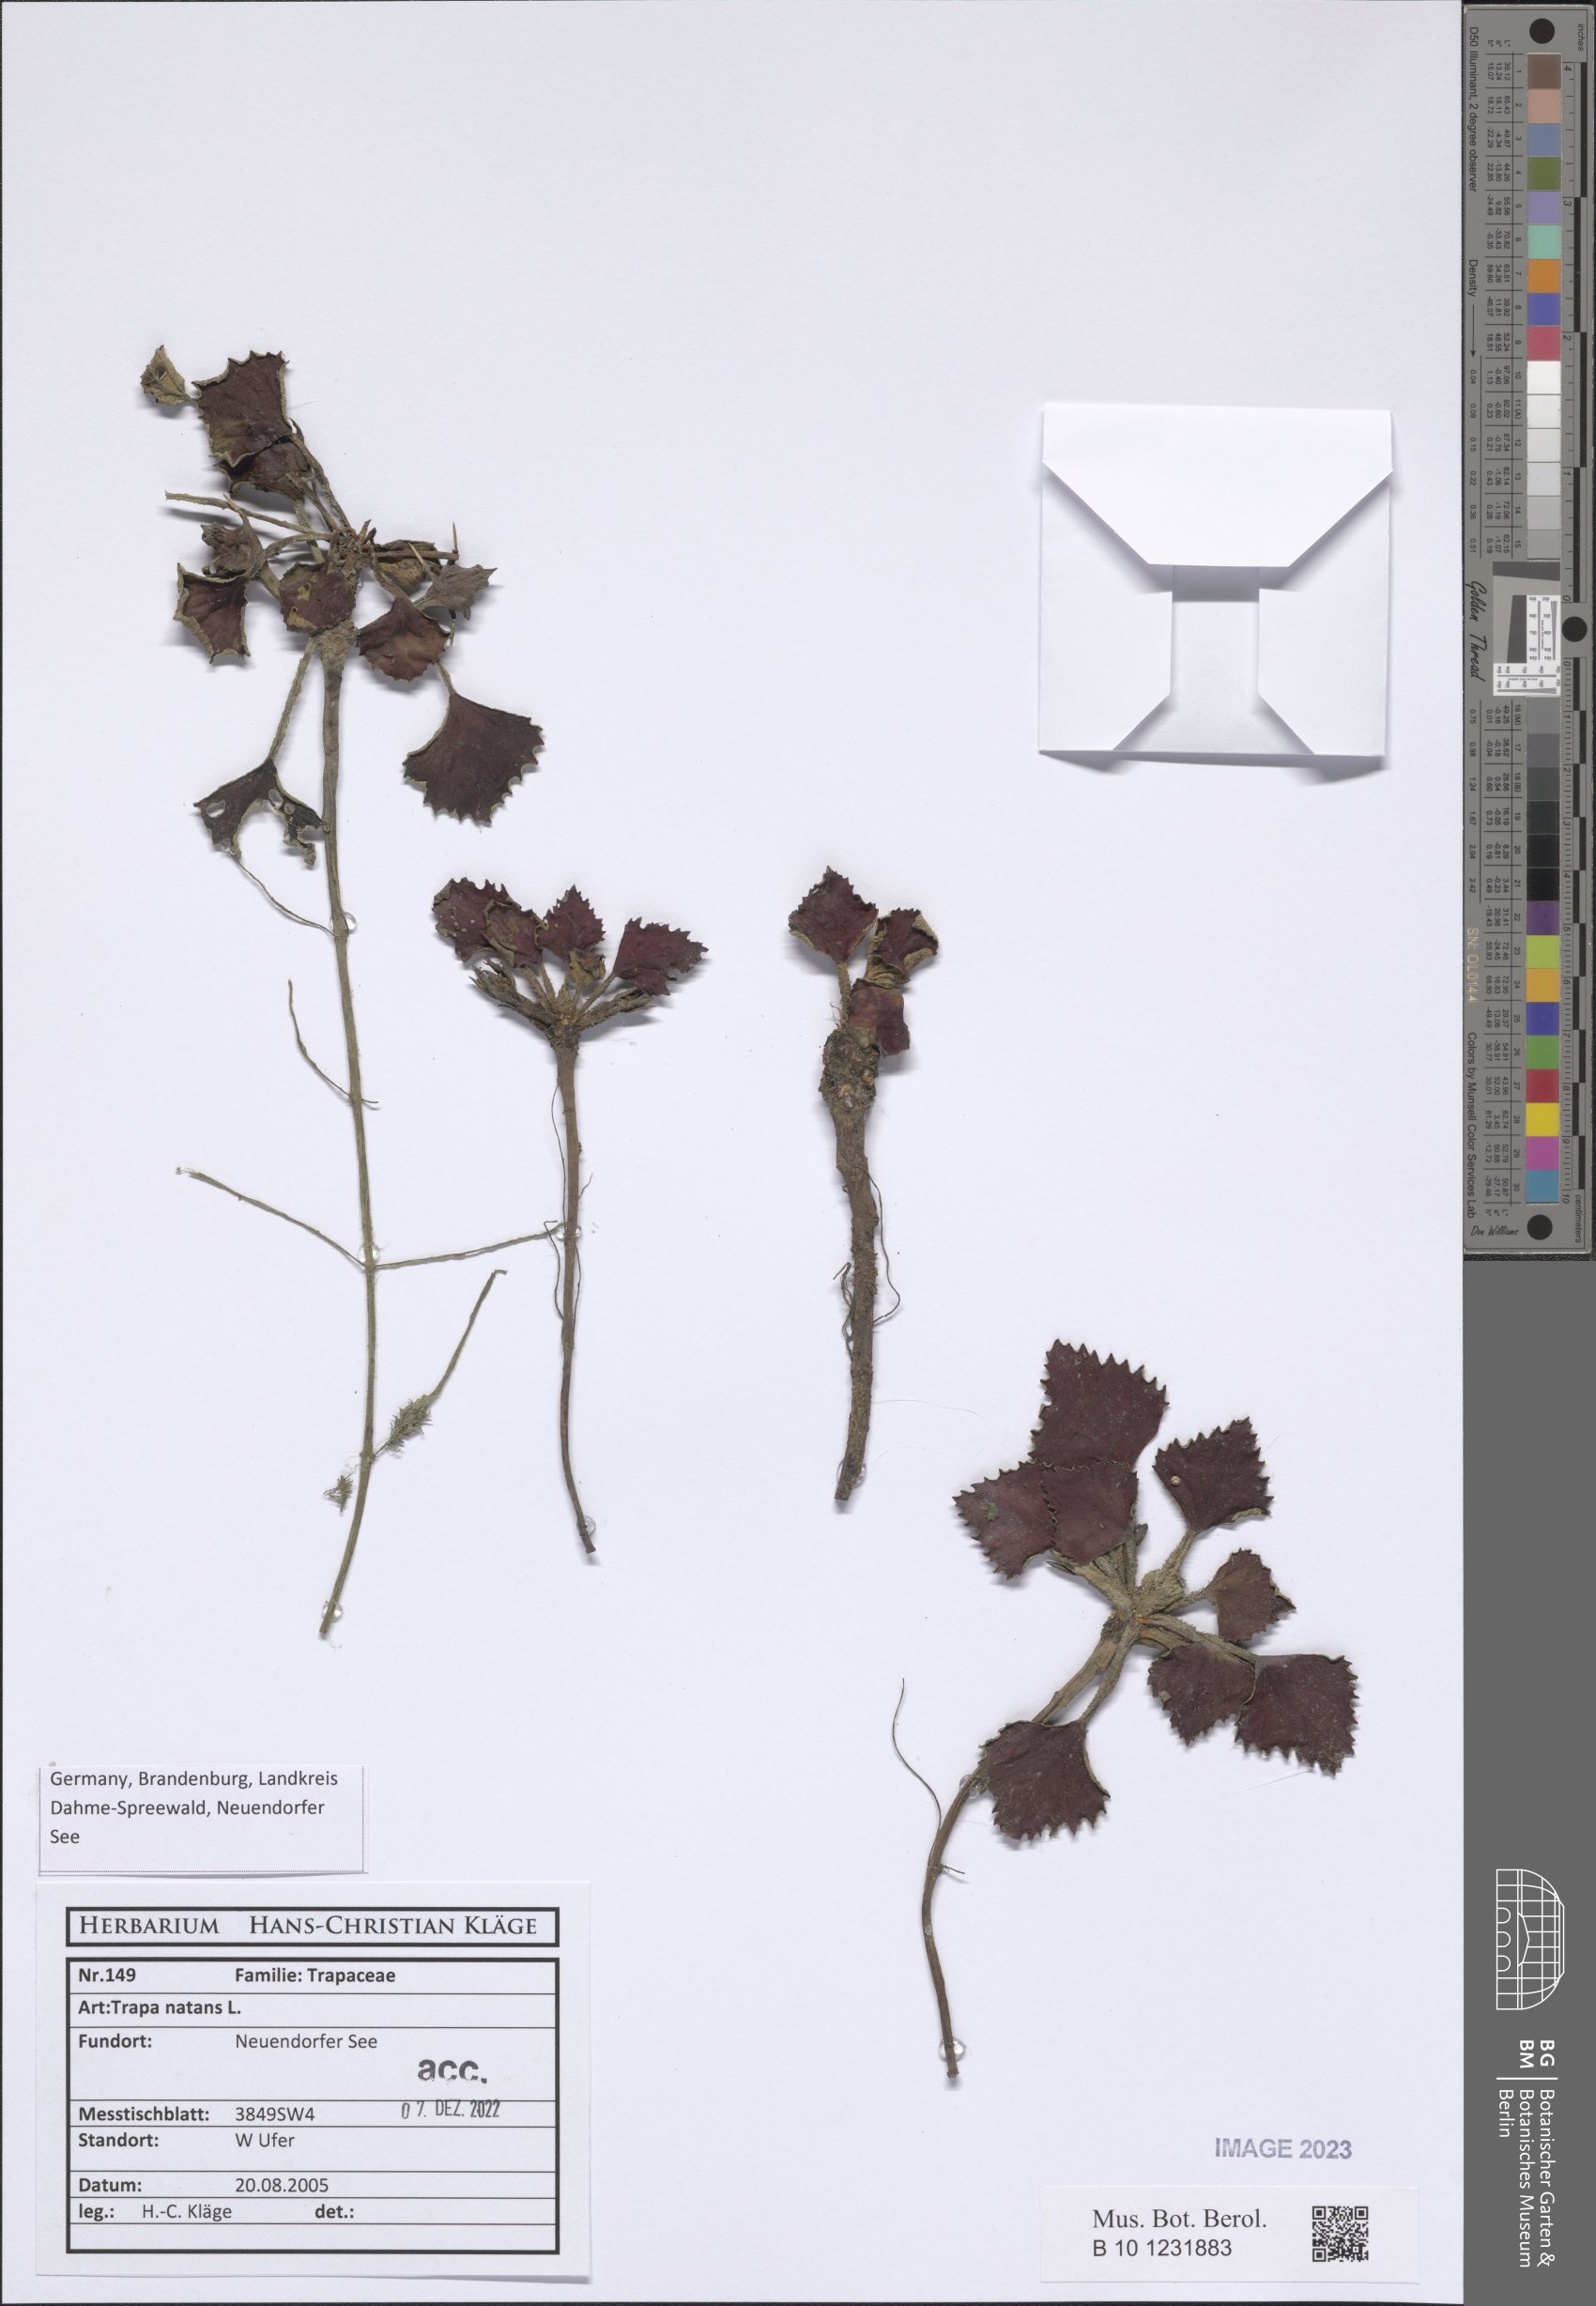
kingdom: Plantae
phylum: Tracheophyta
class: Magnoliopsida
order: Myrtales
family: Lythraceae
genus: Trapa
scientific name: Trapa natans
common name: Water chestnut
